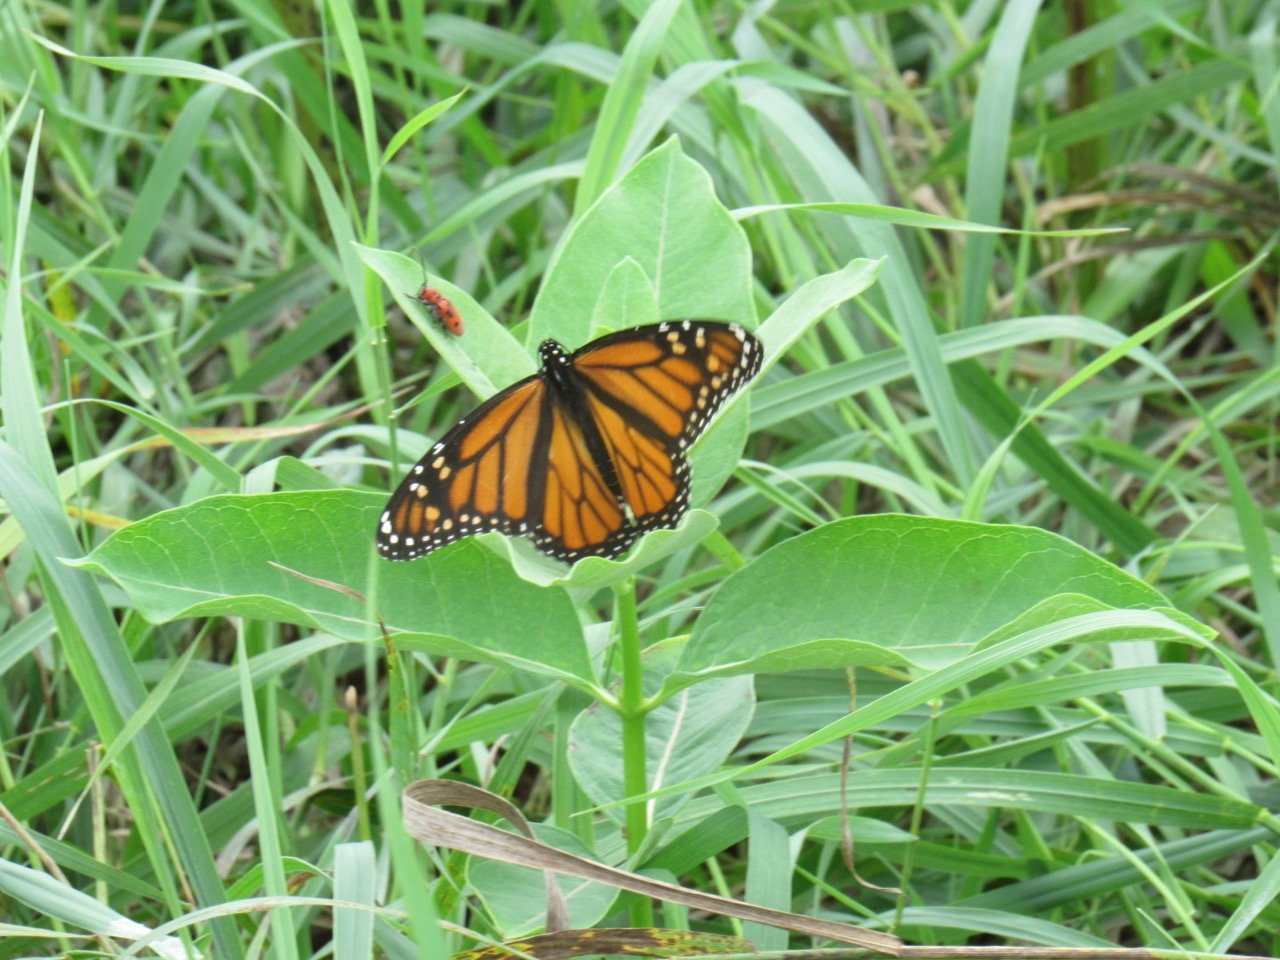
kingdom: Animalia
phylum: Arthropoda
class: Insecta
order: Lepidoptera
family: Nymphalidae
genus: Danaus
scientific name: Danaus plexippus
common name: Monarch
